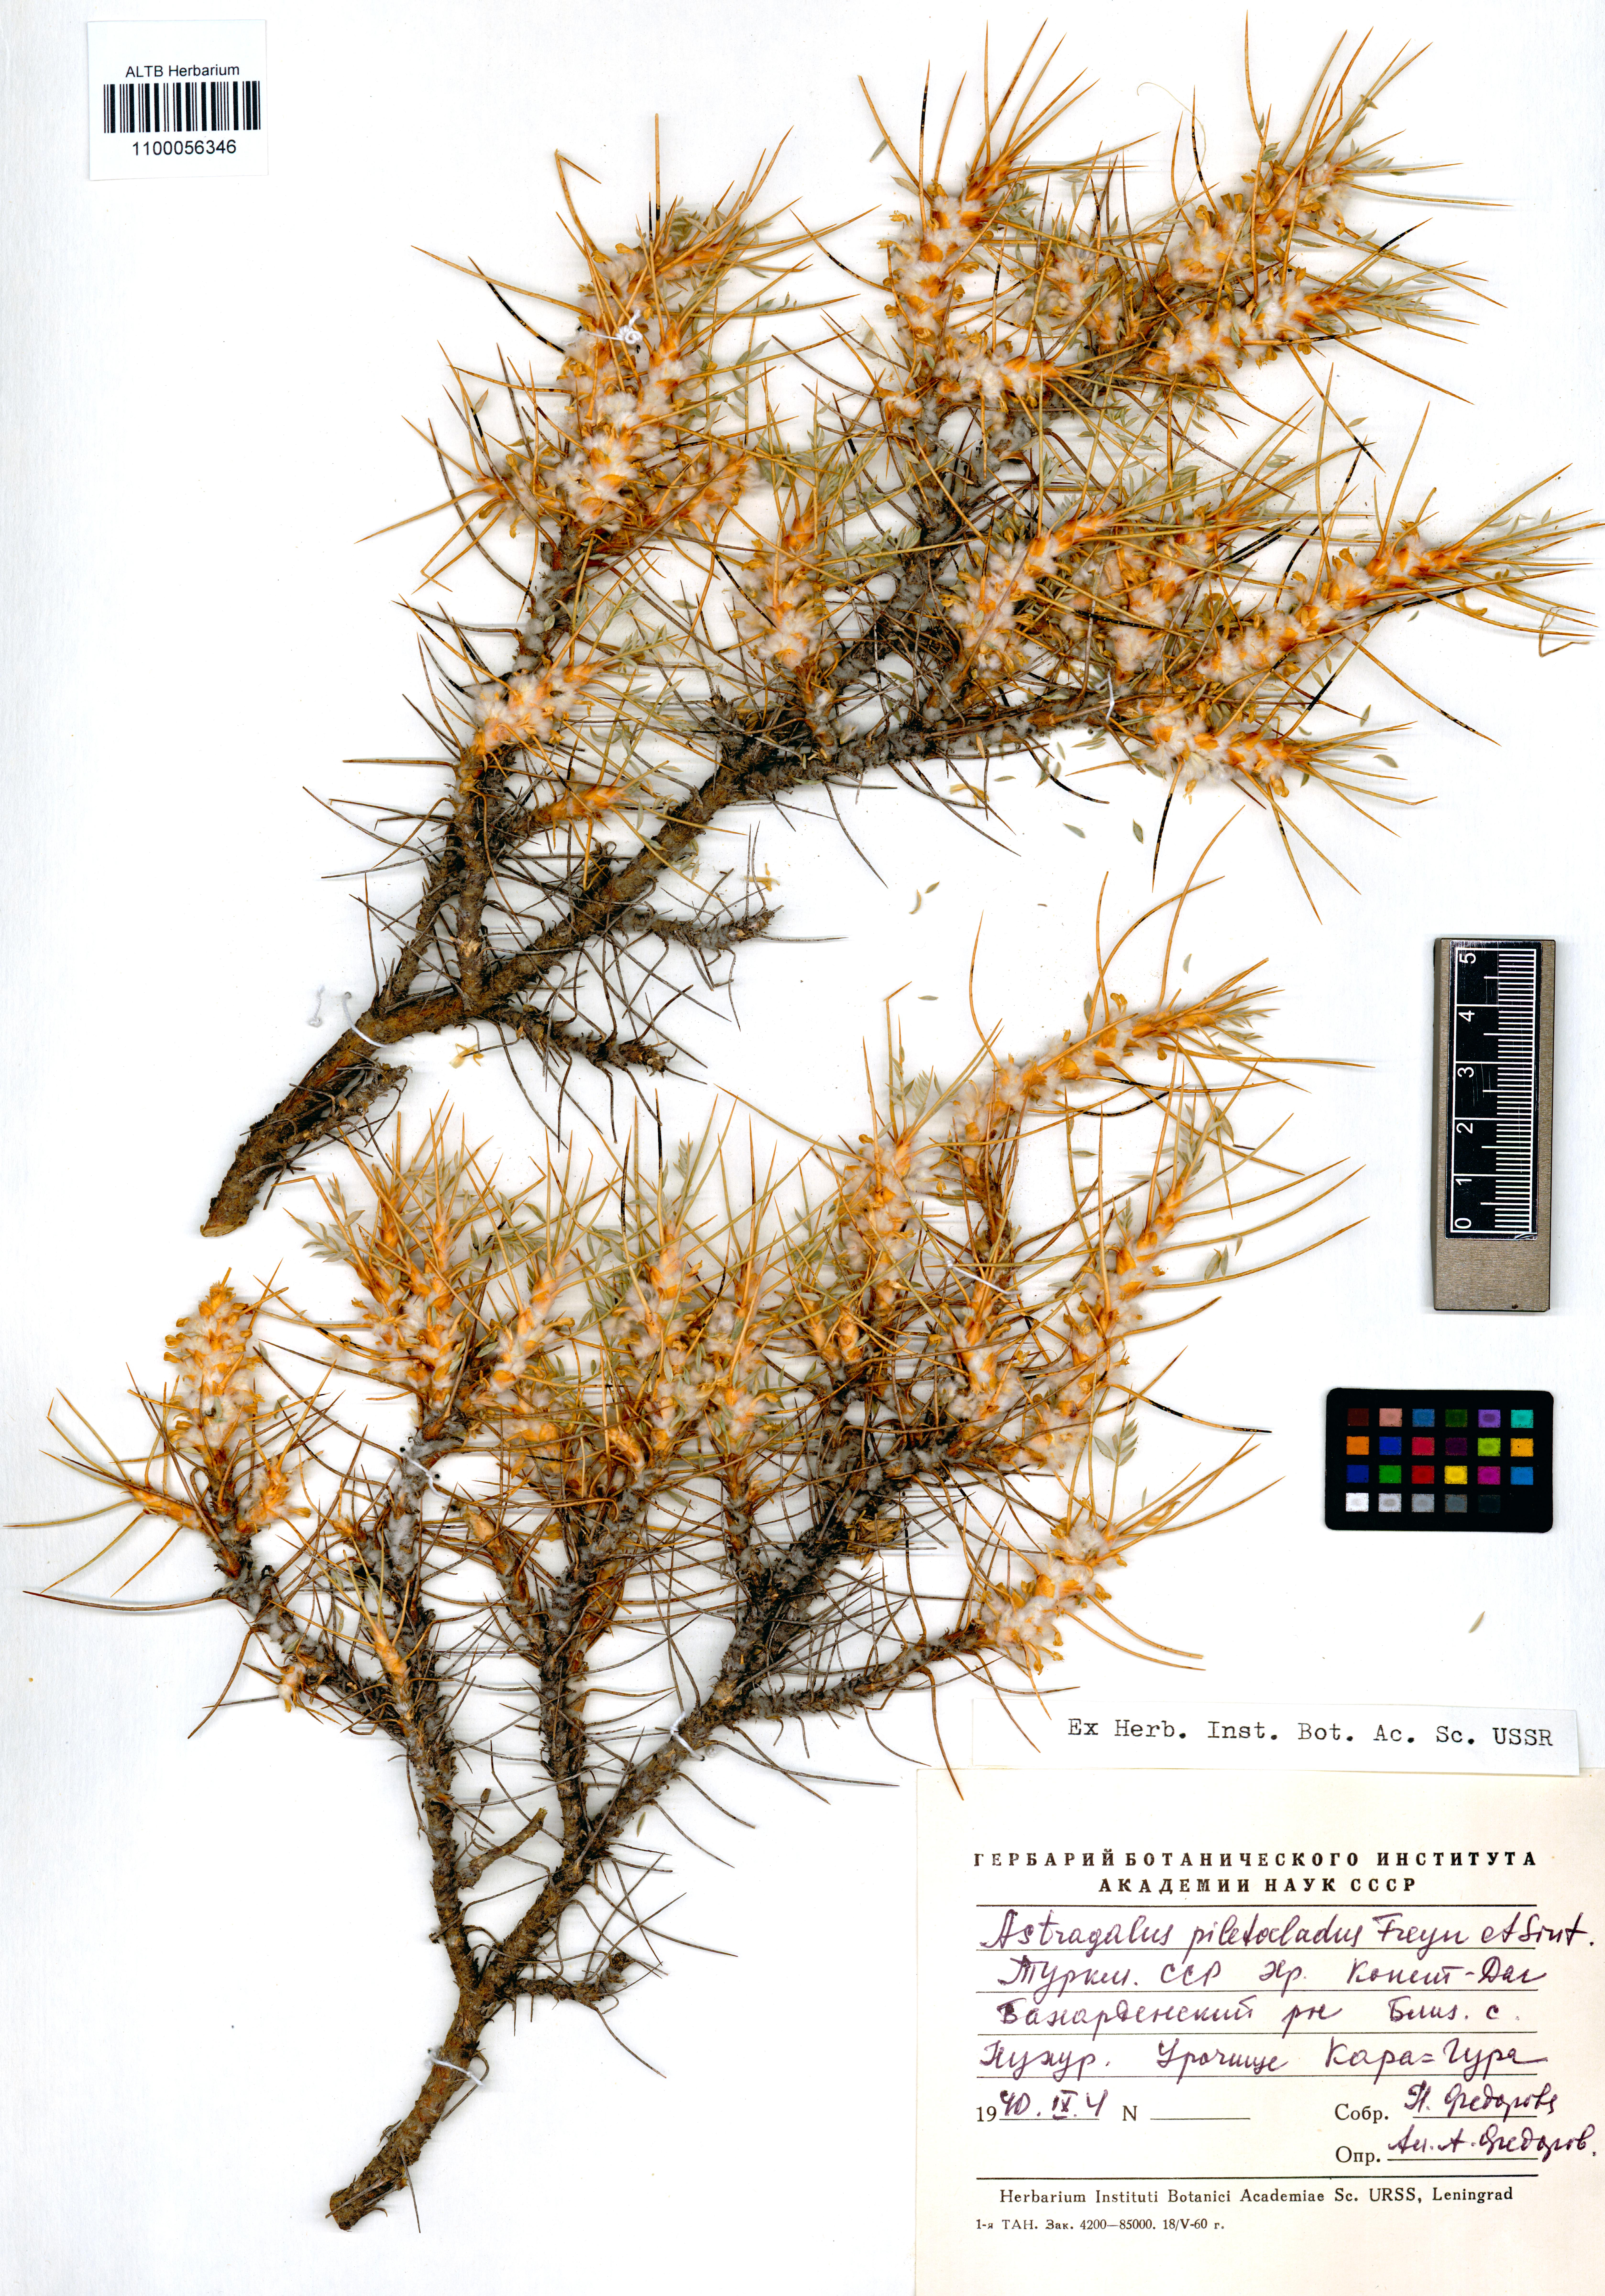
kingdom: Plantae
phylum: Tracheophyta
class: Magnoliopsida
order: Fabales
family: Fabaceae
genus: Astragalus
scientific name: Astragalus verus
